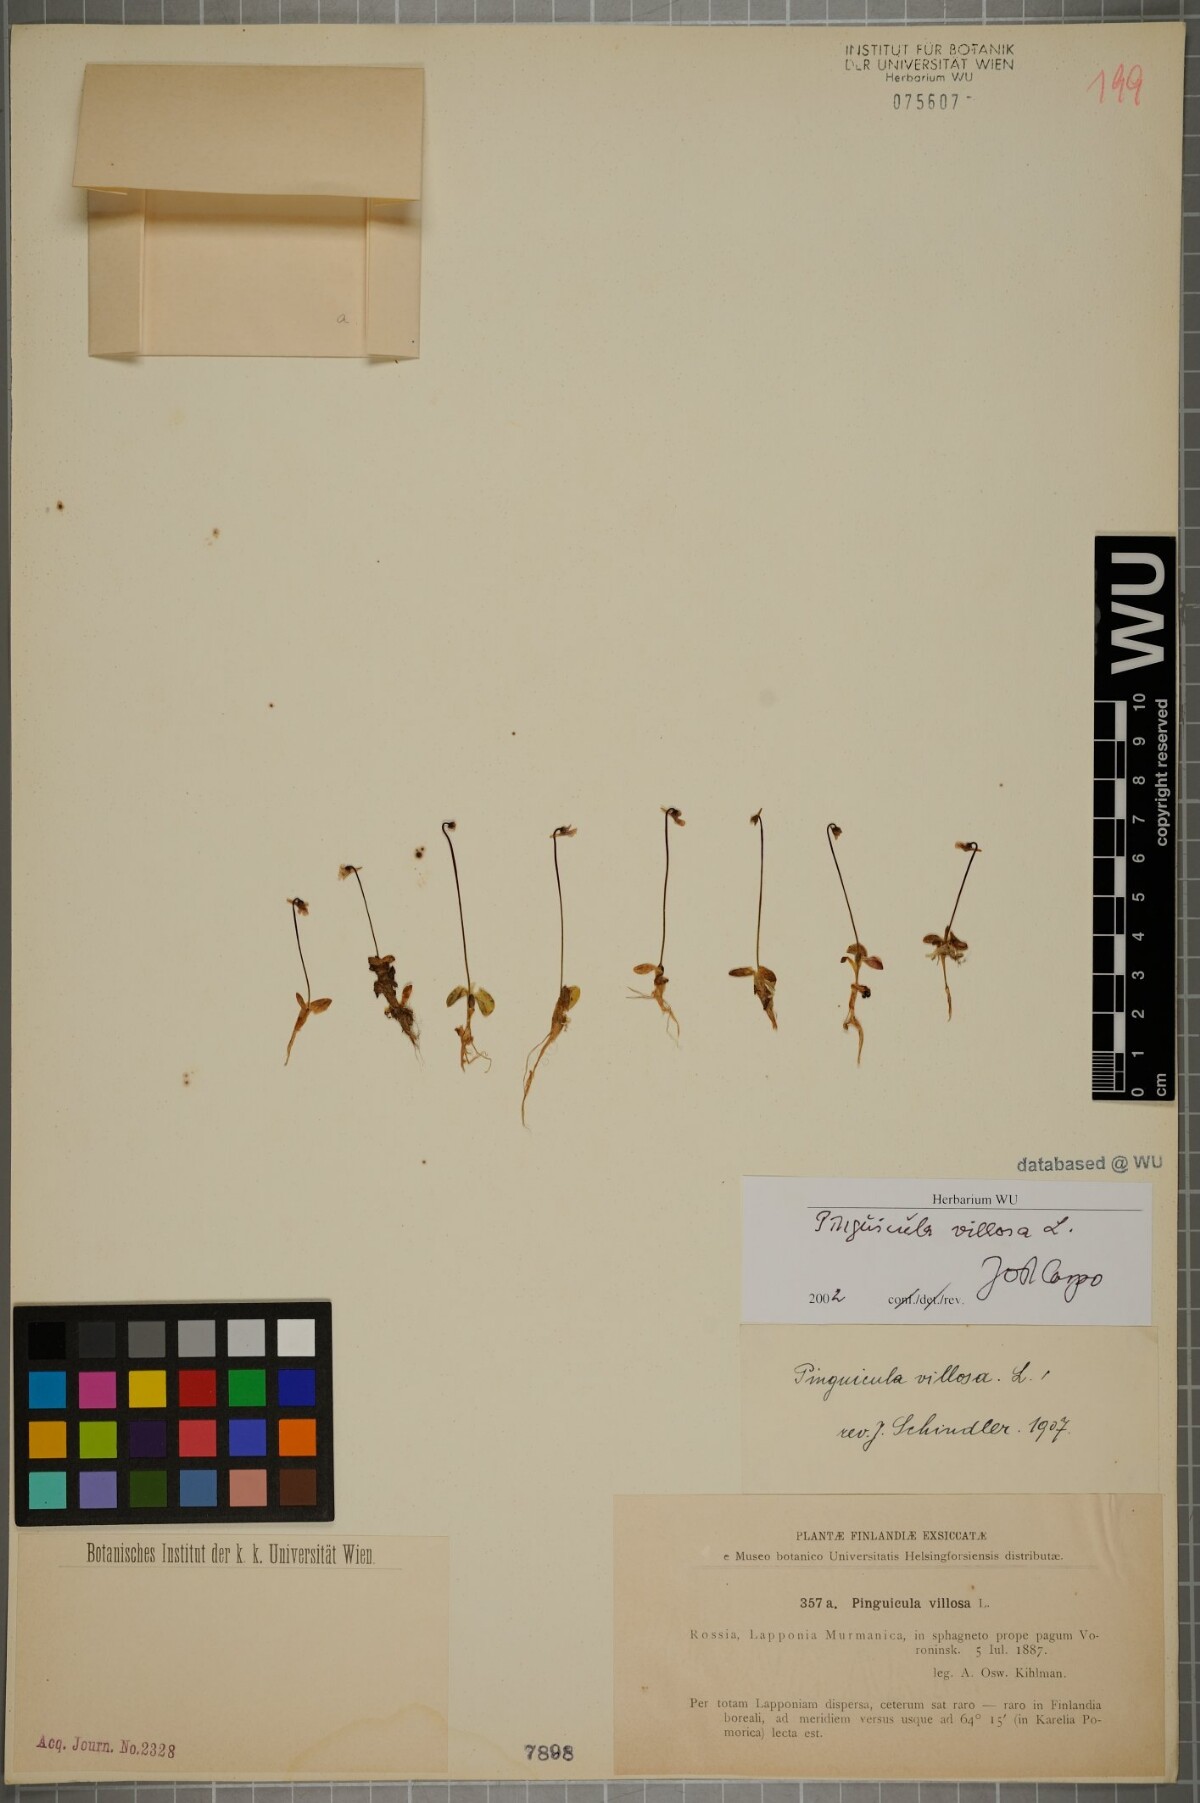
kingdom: Plantae
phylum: Tracheophyta
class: Magnoliopsida
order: Lamiales
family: Lentibulariaceae
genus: Pinguicula
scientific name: Pinguicula villosa
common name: Hairy butterwort
